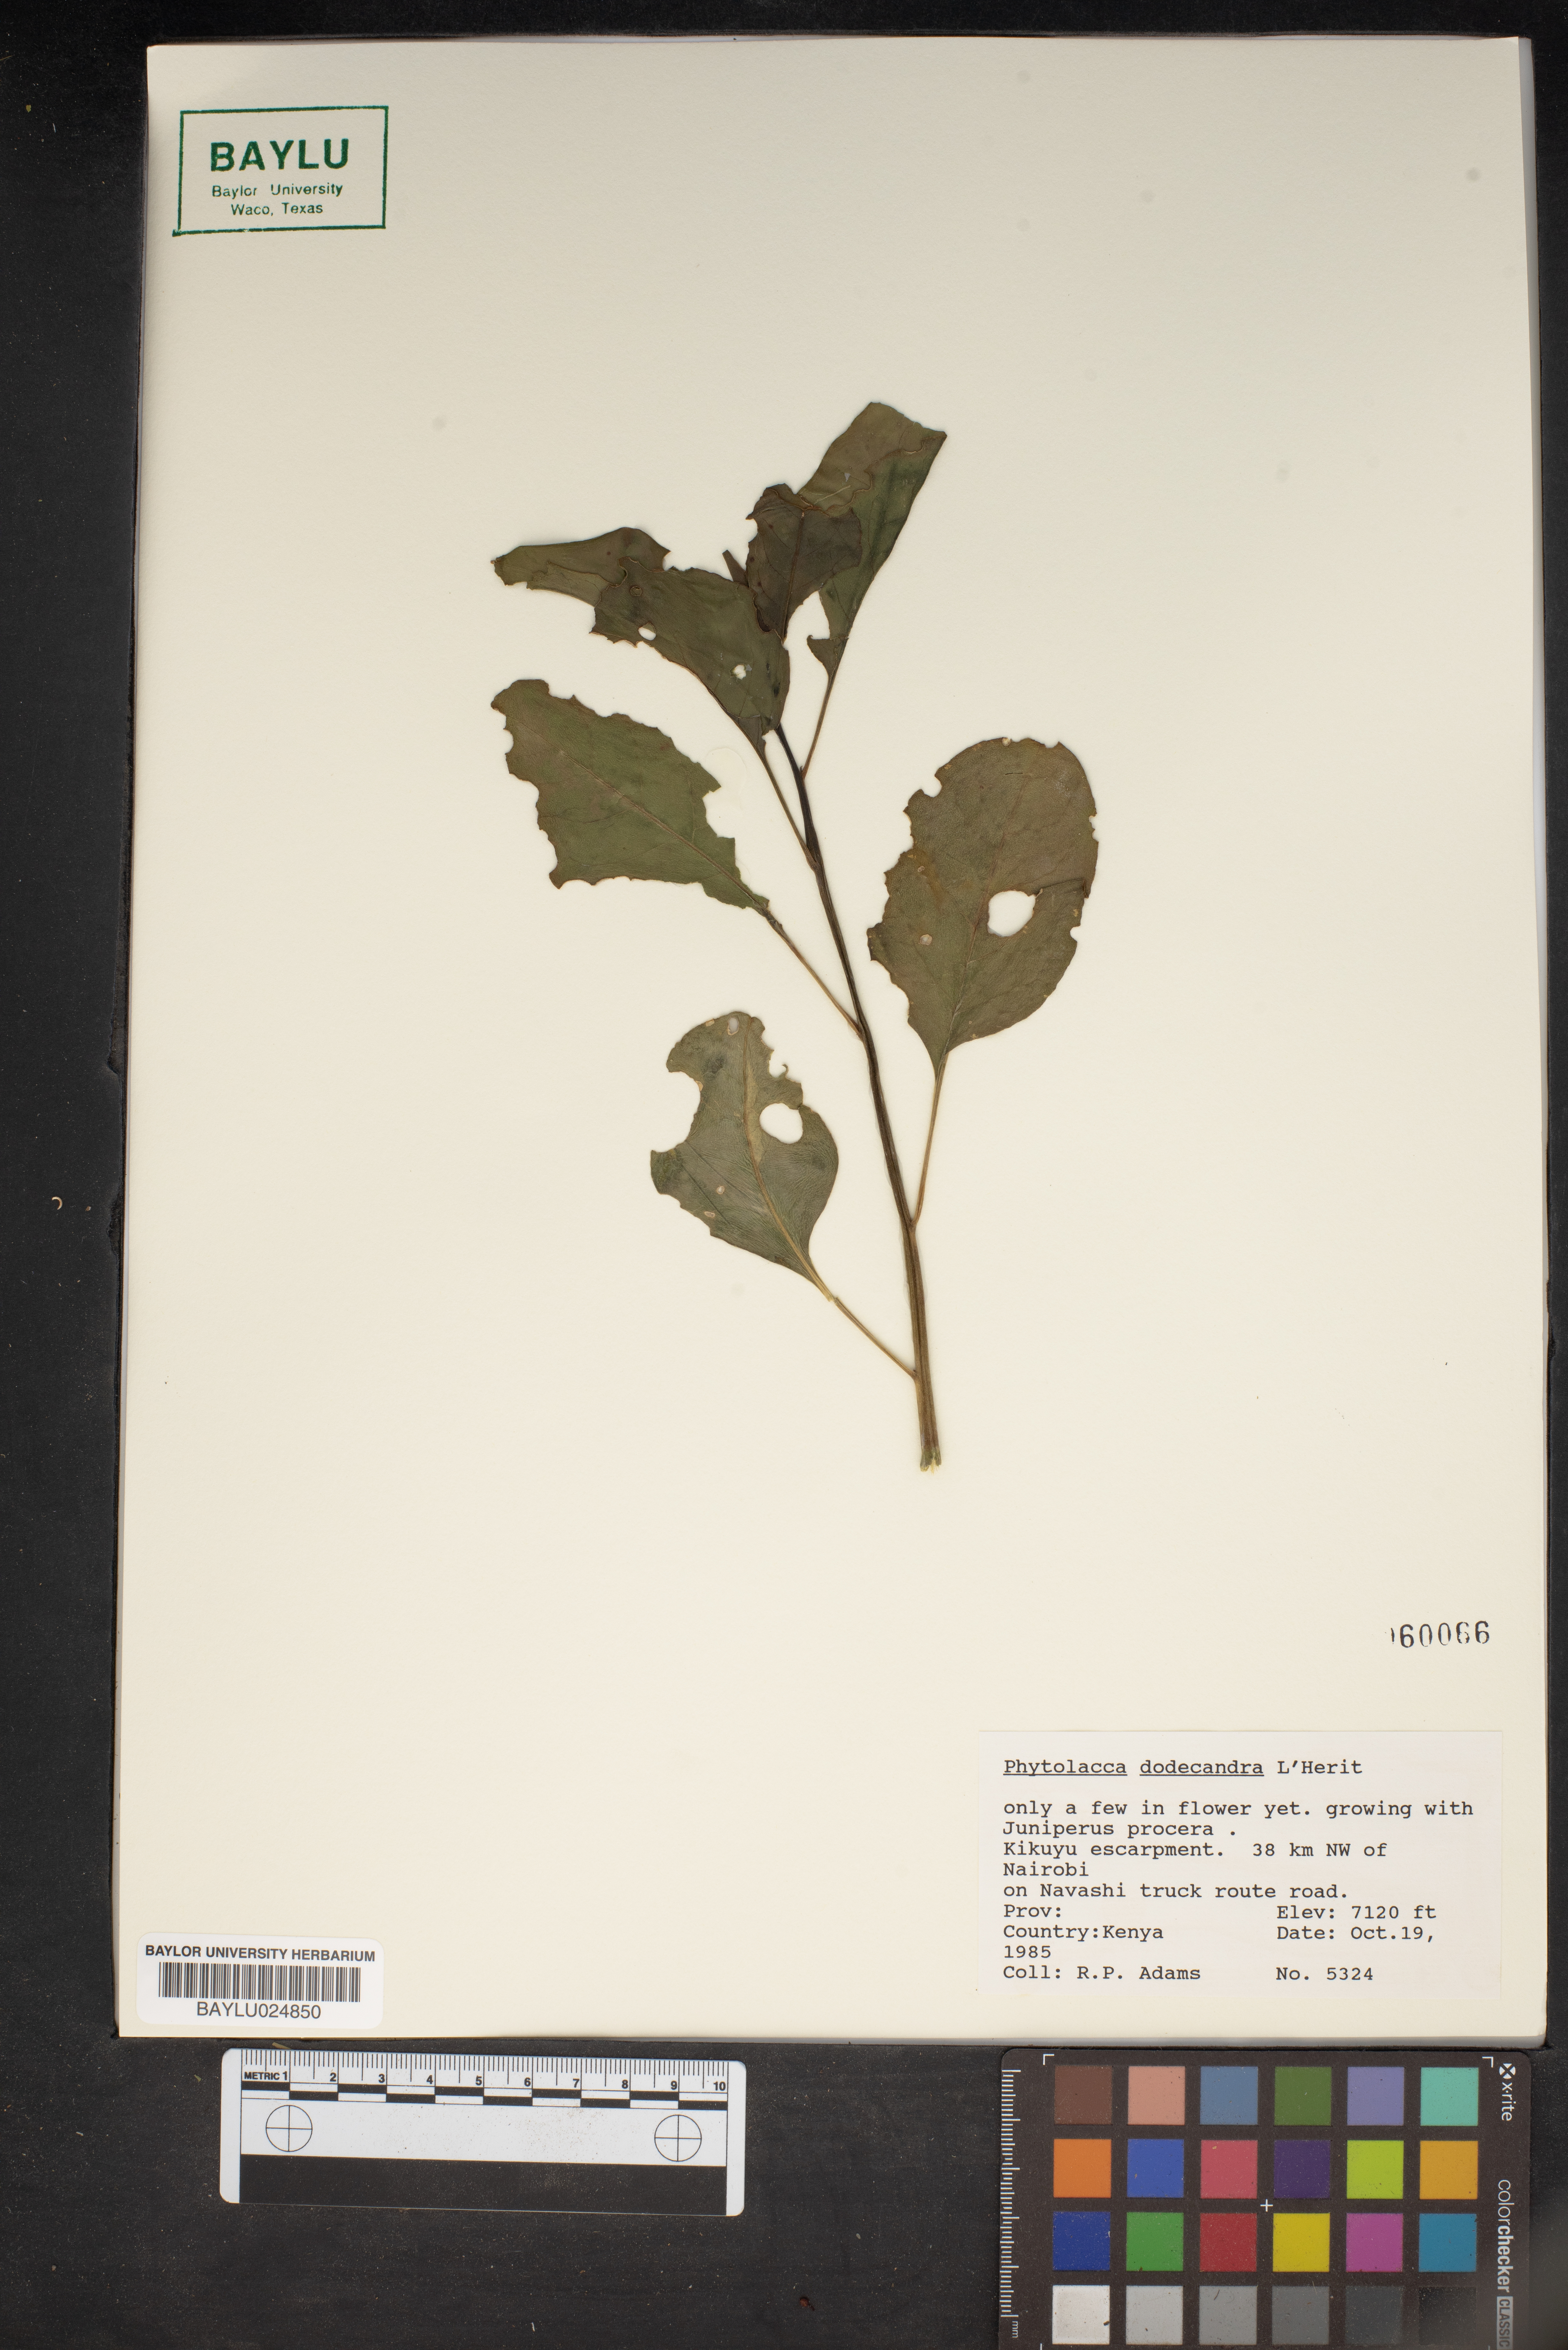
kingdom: Plantae
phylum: Tracheophyta
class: Magnoliopsida
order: Caryophyllales
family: Phytolaccaceae
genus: Phytolacca
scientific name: Phytolacca dodecandra
